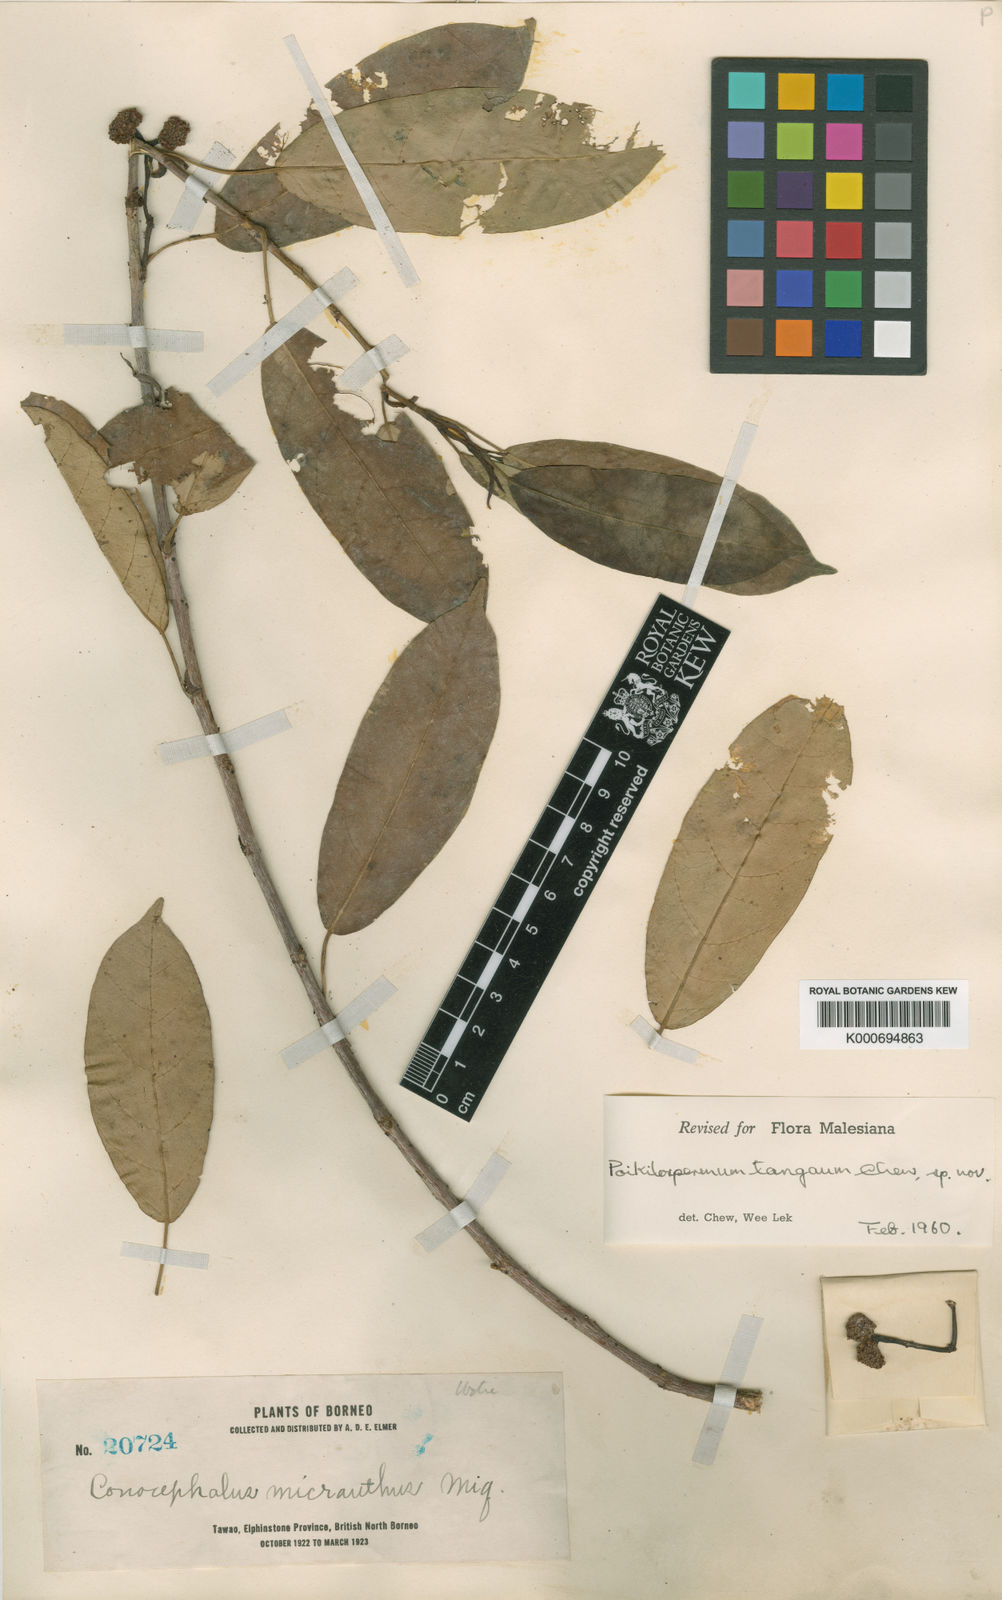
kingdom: Plantae
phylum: Tracheophyta
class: Magnoliopsida
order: Rosales
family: Urticaceae
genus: Poikilospermum
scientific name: Poikilospermum micranthum
